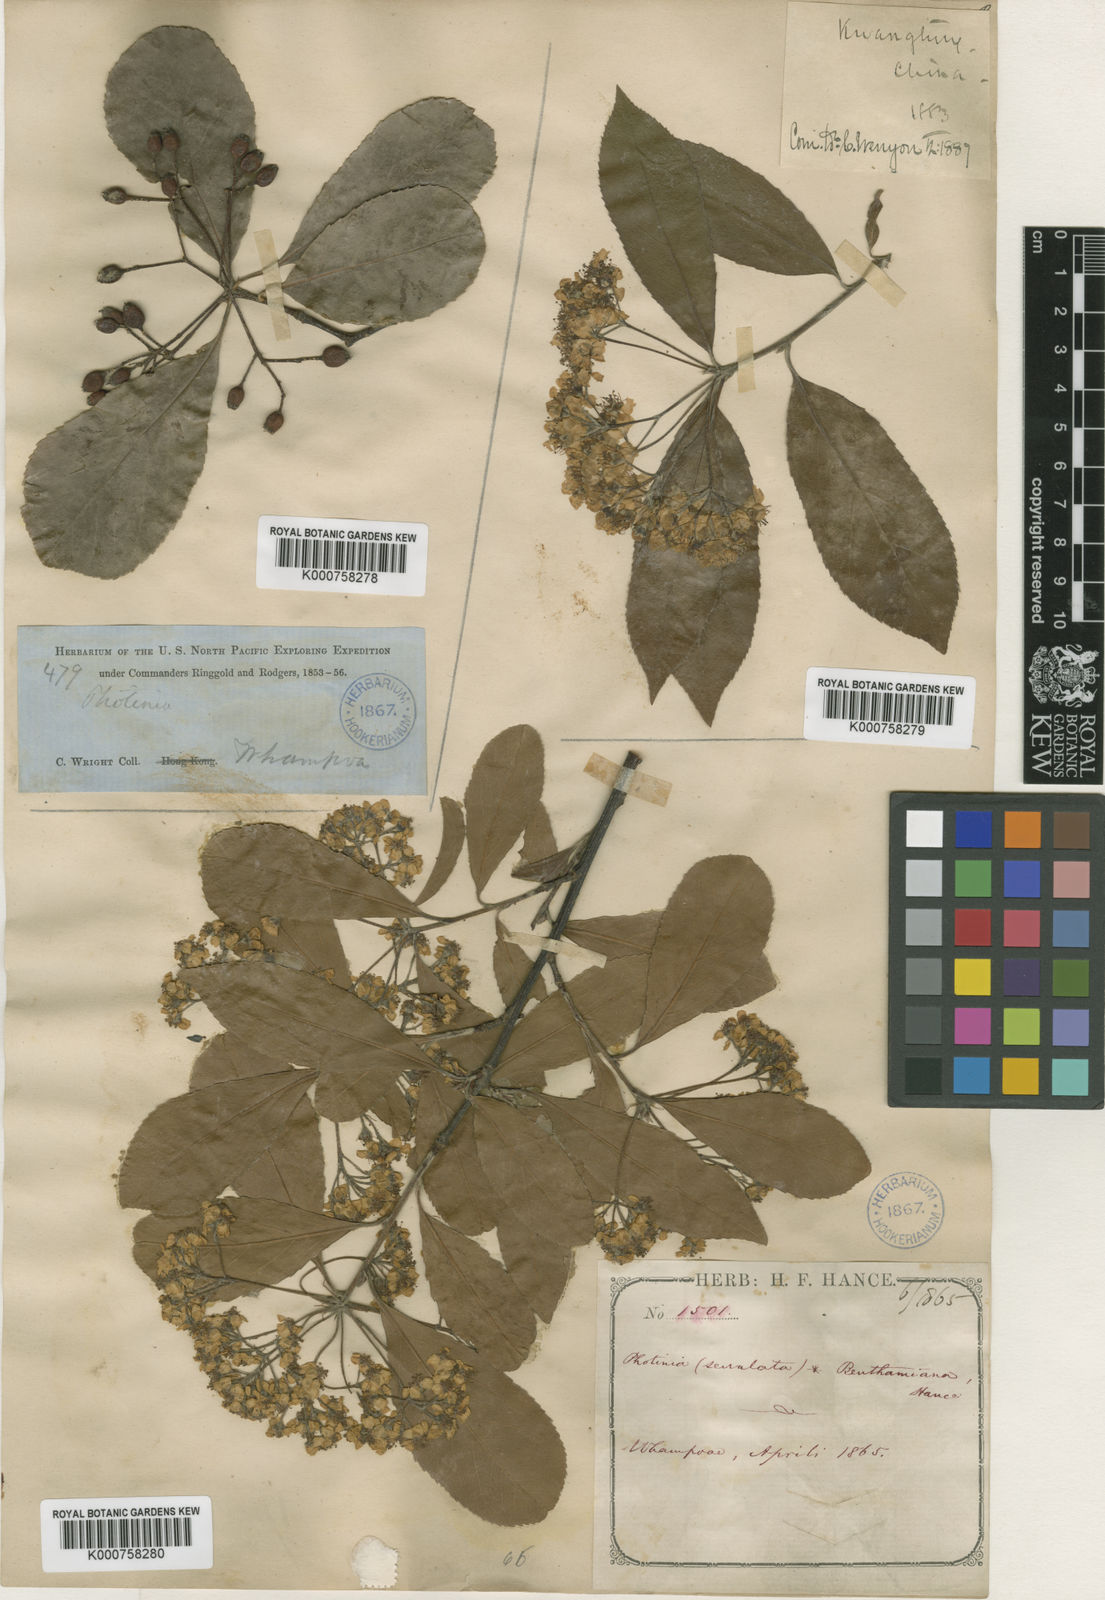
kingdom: Plantae
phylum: Tracheophyta
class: Magnoliopsida
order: Rosales
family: Rosaceae
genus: Pourthiaea
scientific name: Pourthiaea benthamiana
